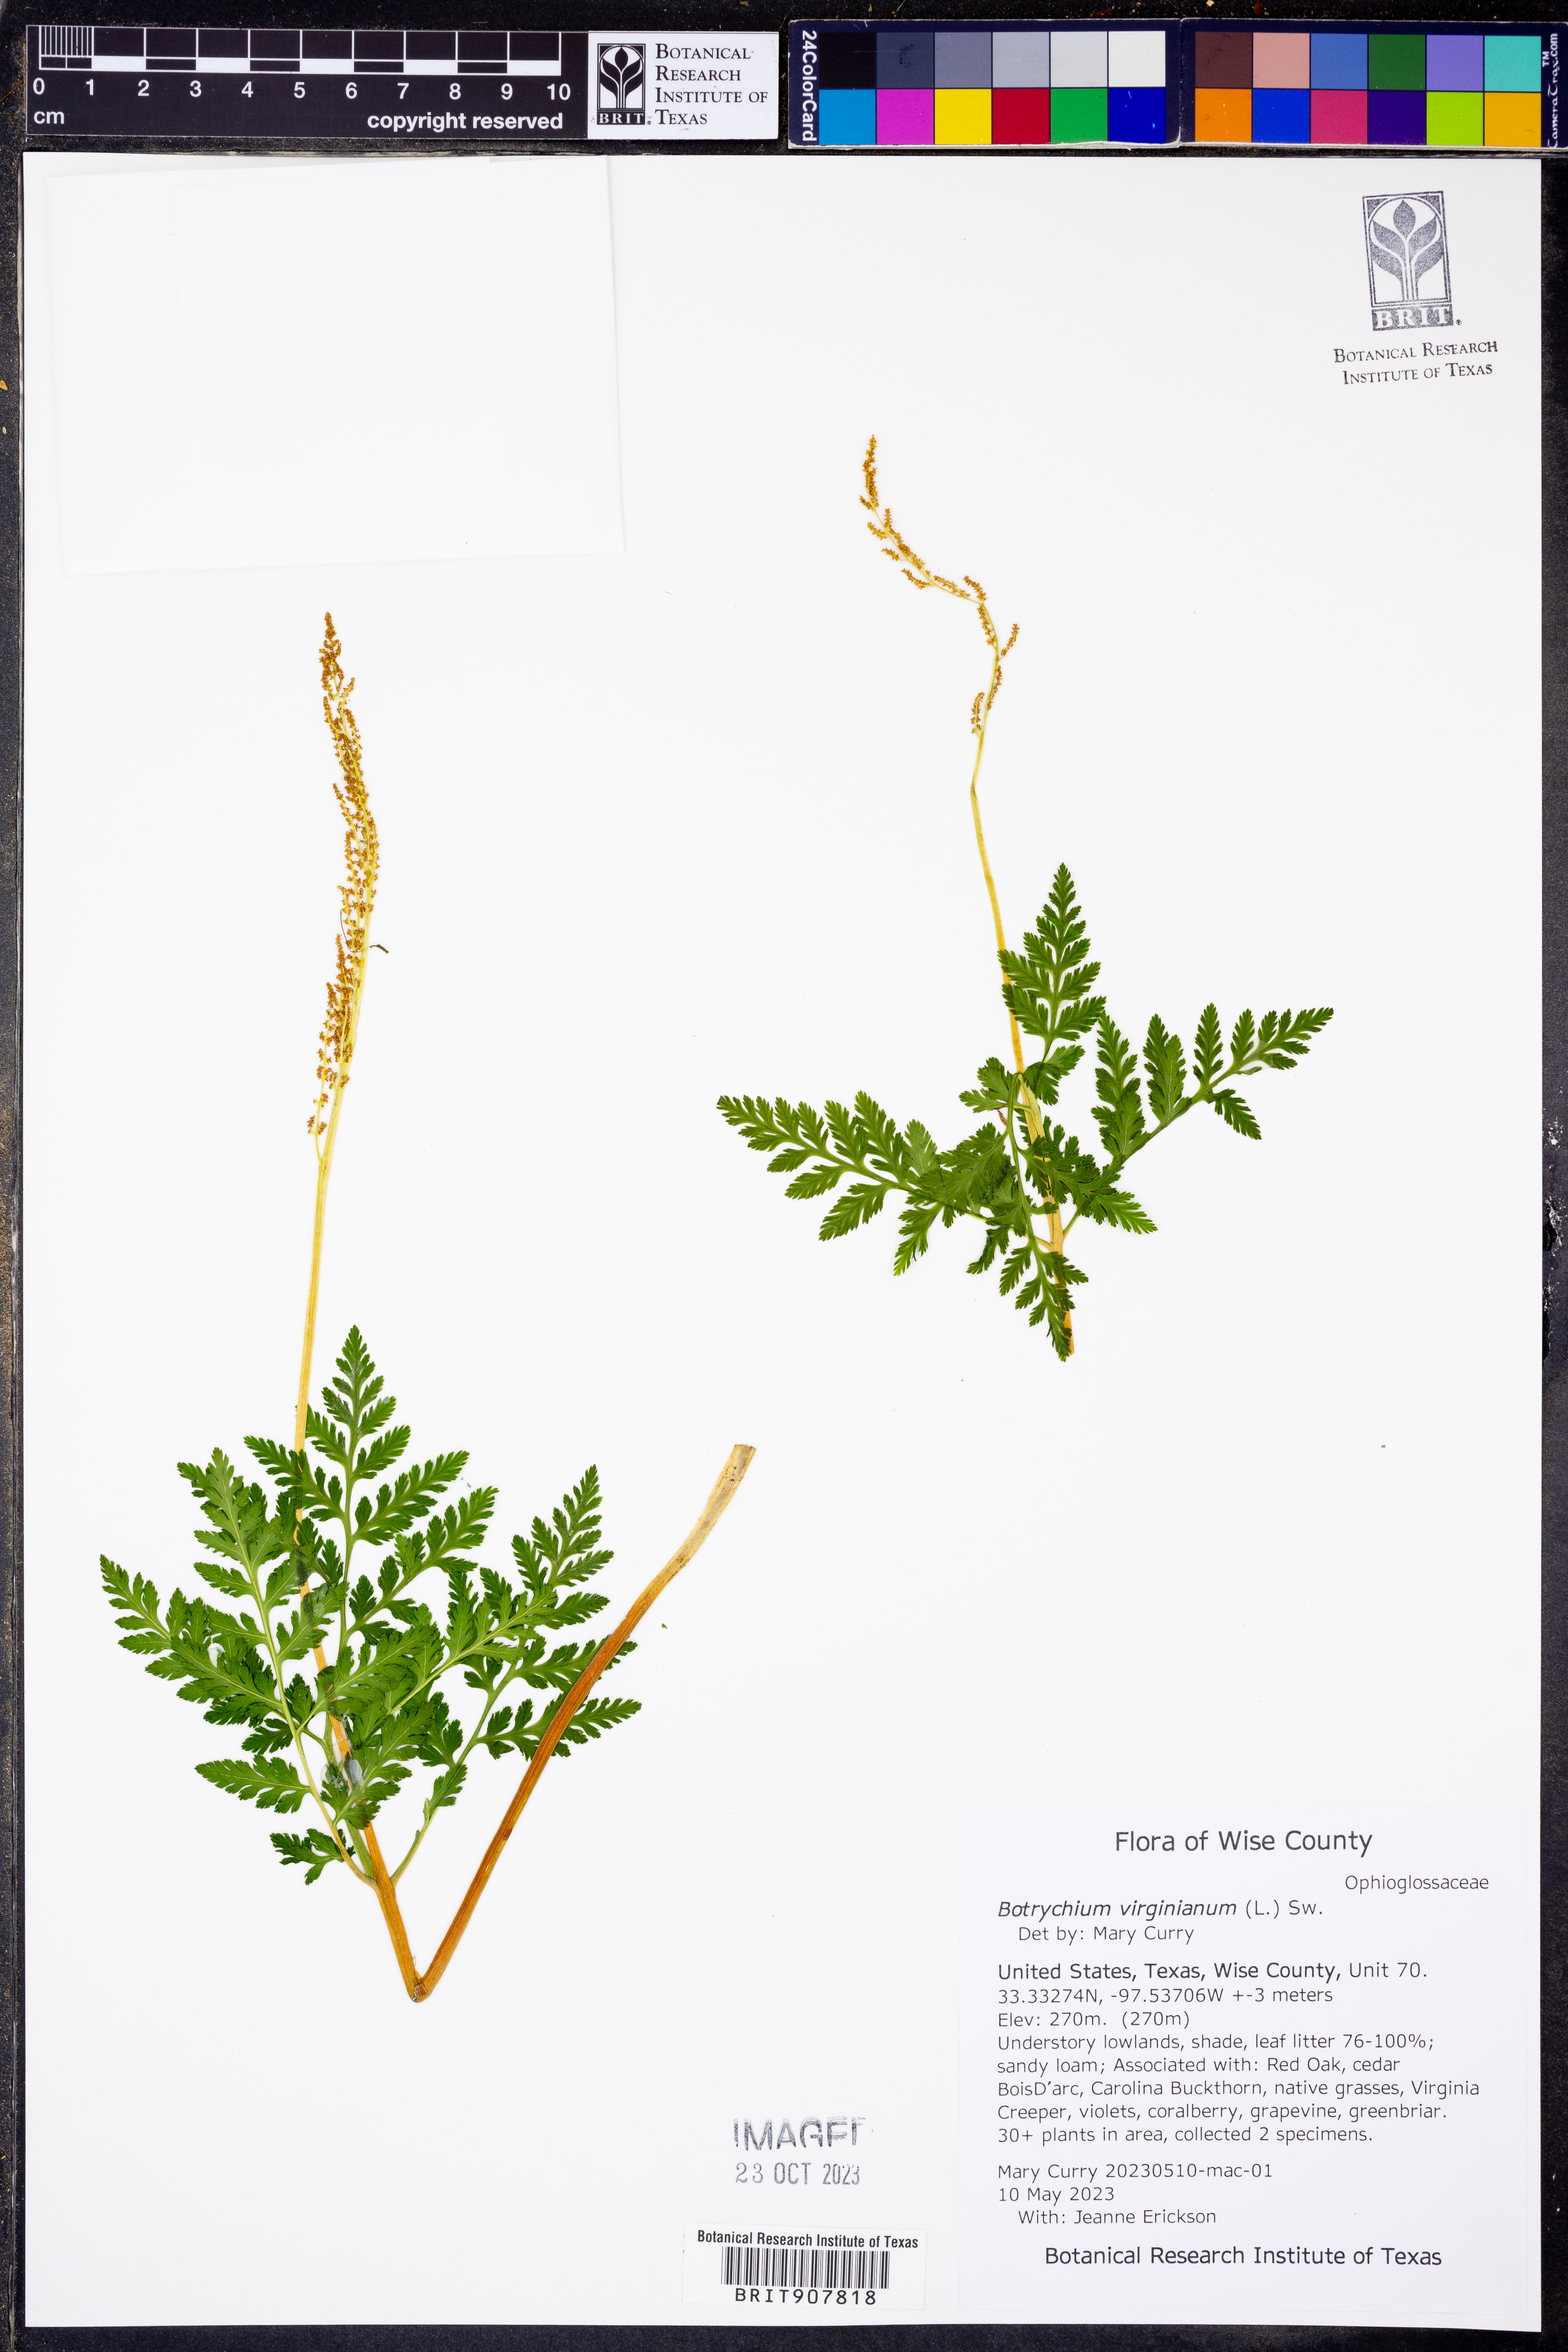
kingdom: Plantae
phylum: Tracheophyta
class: Polypodiopsida
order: Ophioglossales
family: Ophioglossaceae
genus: Botrypus
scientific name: Botrypus virginianus
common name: Common grapefern
